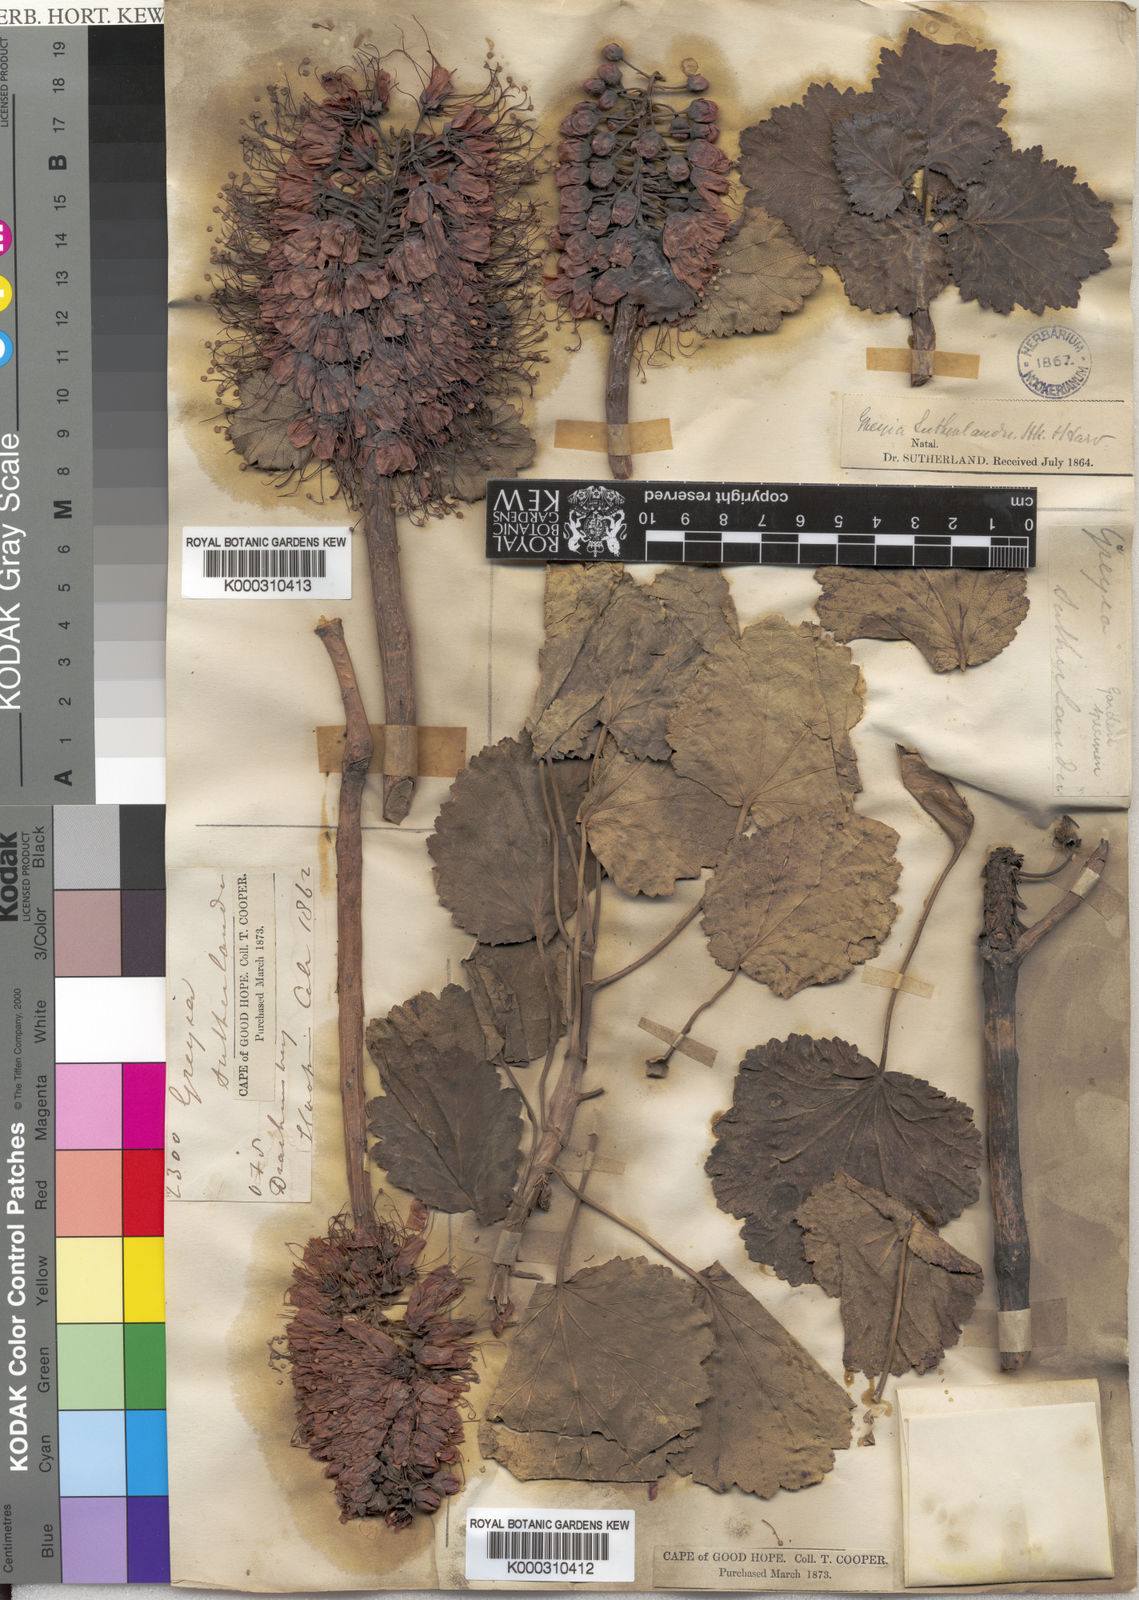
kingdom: Plantae
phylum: Tracheophyta
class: Magnoliopsida
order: Geraniales
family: Francoaceae
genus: Greyia
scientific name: Greyia sutherlandii
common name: Glossy bottlebrush
